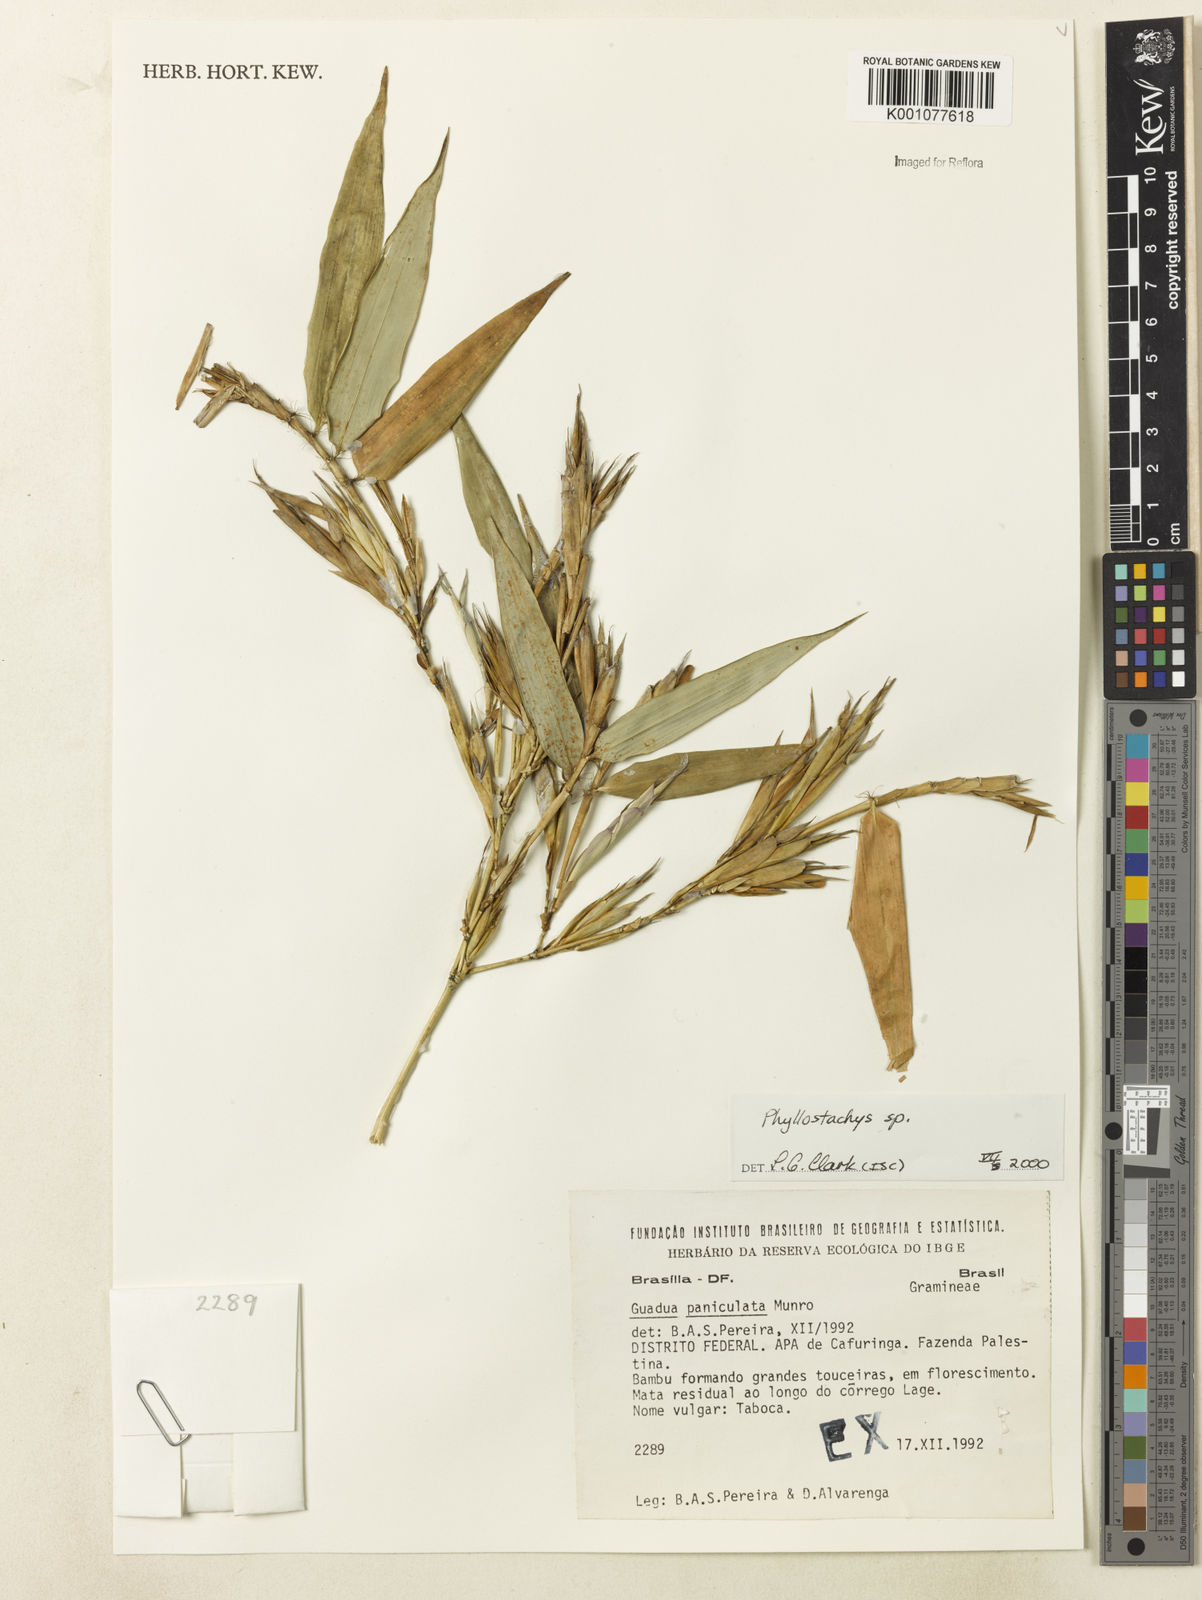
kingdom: Plantae
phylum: Tracheophyta
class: Liliopsida
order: Poales
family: Poaceae
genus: Phyllostachys
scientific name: Phyllostachys
